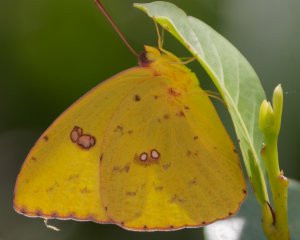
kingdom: Animalia
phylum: Arthropoda
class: Insecta
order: Lepidoptera
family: Pieridae
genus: Phoebis
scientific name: Phoebis sennae
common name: Cloudless Sulphur
